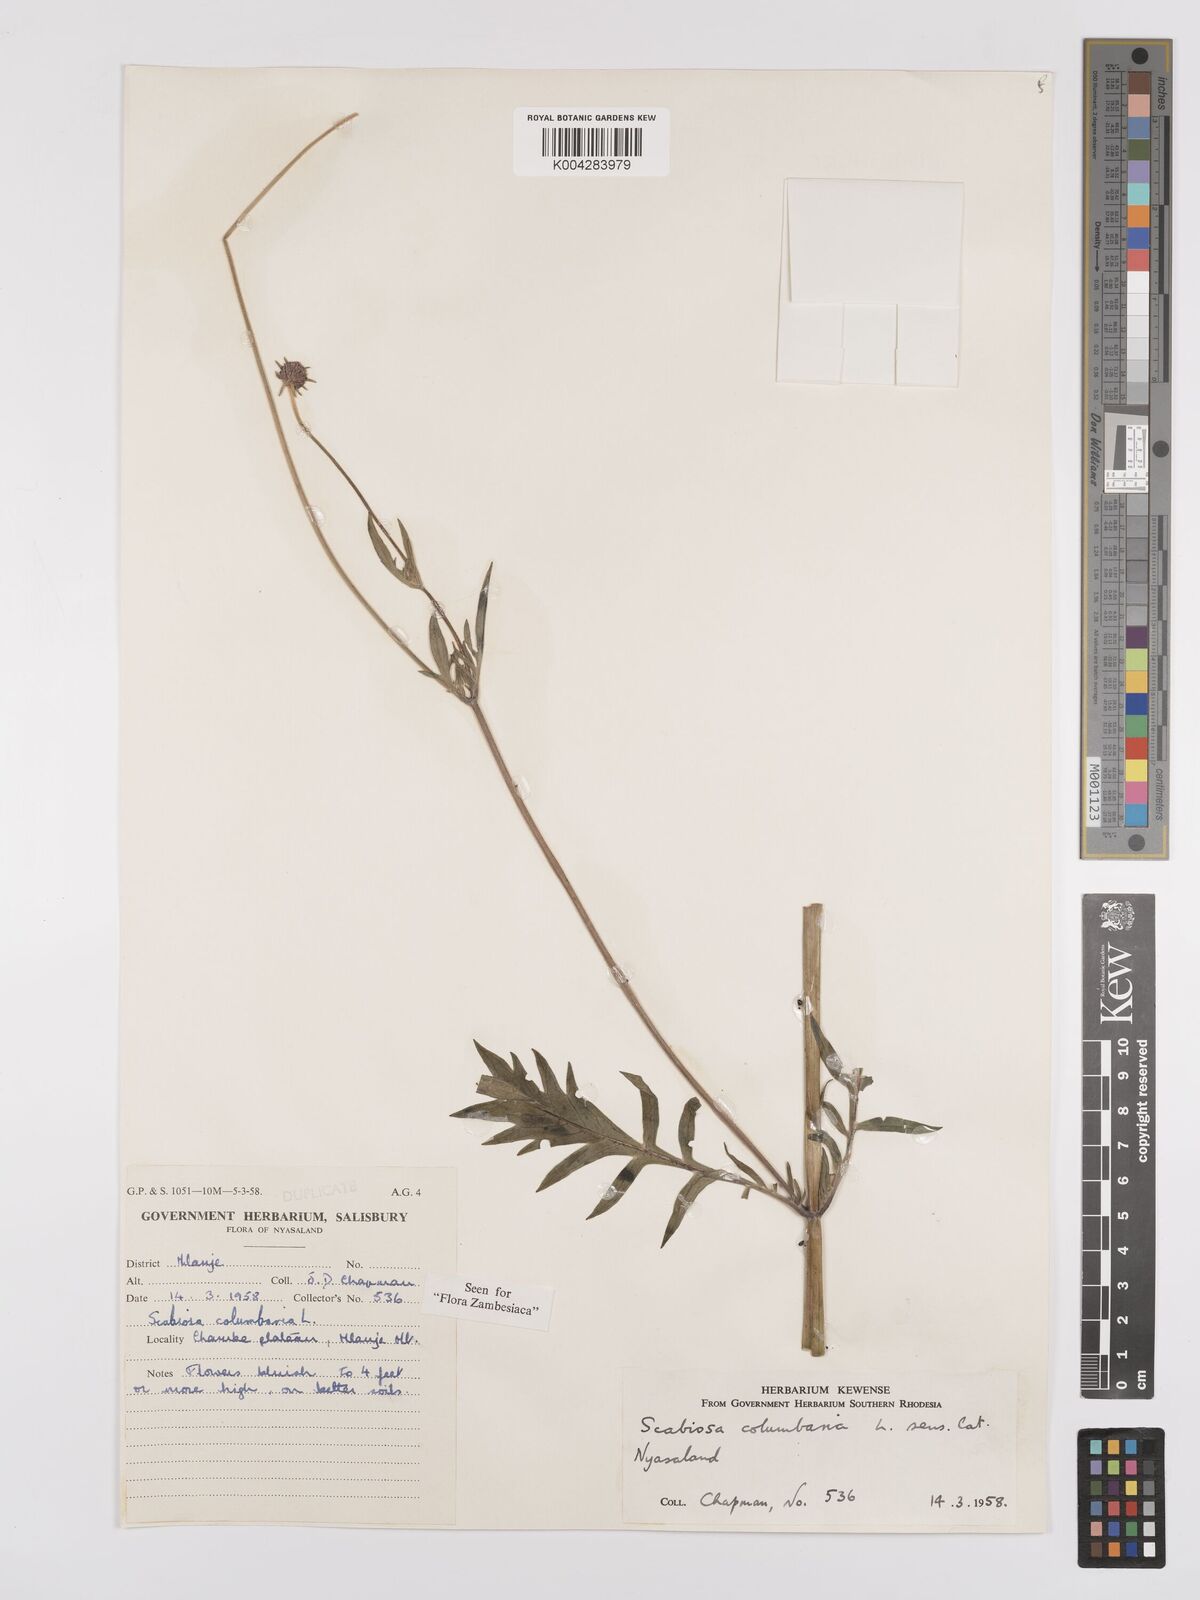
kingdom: Plantae
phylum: Tracheophyta
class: Magnoliopsida
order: Dipsacales
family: Caprifoliaceae
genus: Scabiosa
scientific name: Scabiosa columbaria
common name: Small scabious
